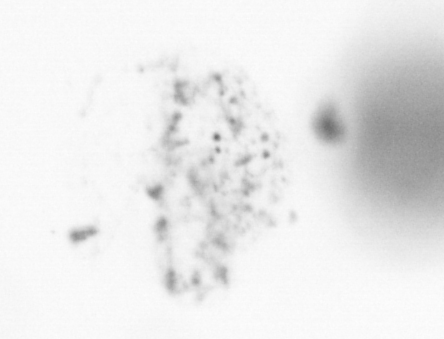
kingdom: Chromista
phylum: Ochrophyta
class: Bacillariophyceae
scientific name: Bacillariophyceae
